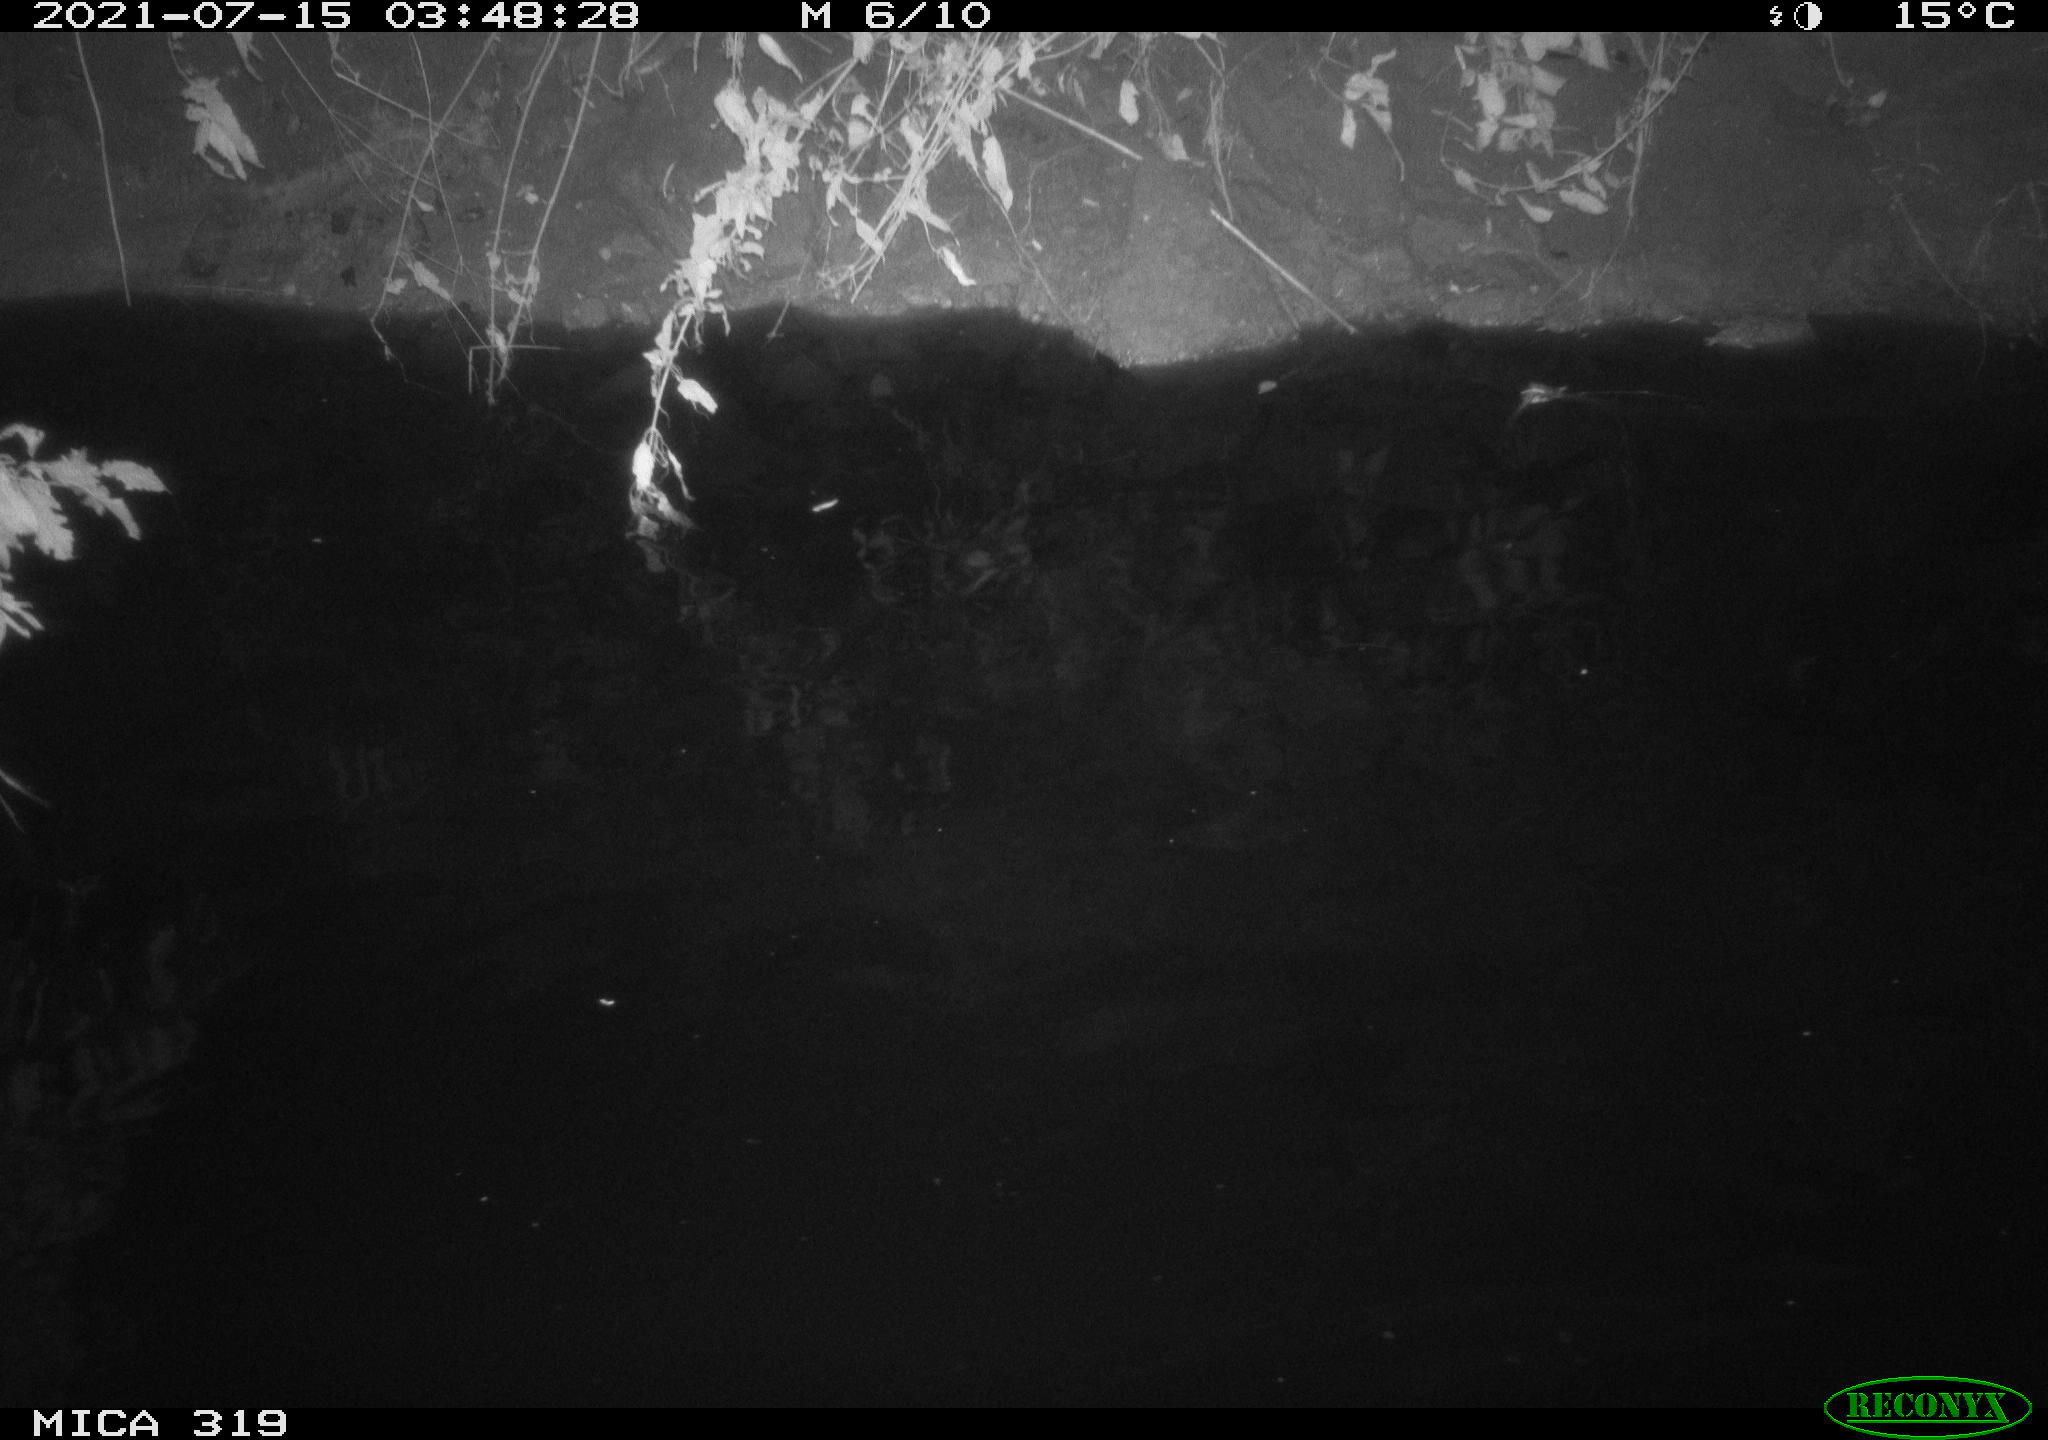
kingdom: Animalia
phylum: Chordata
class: Aves
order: Anseriformes
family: Anatidae
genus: Anas
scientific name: Anas platyrhynchos
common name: Mallard
